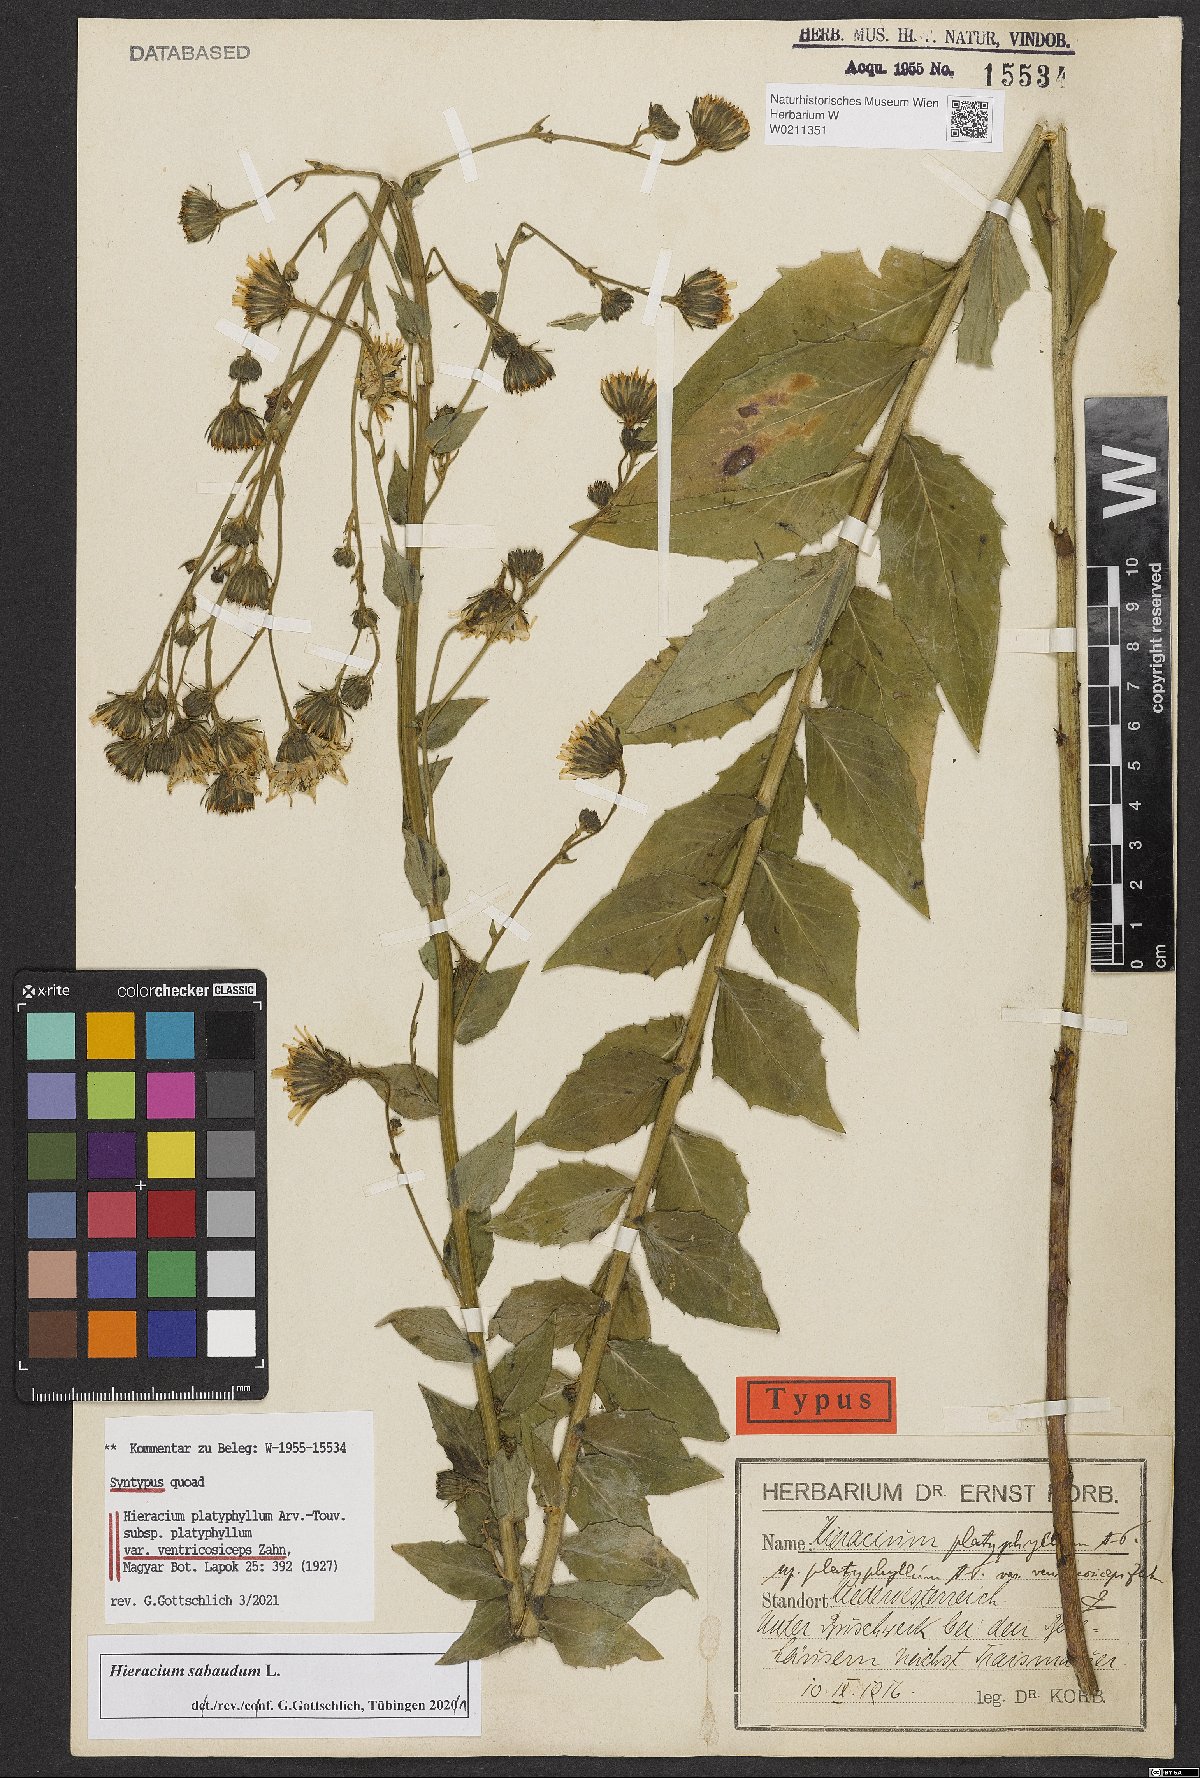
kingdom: Plantae
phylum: Tracheophyta
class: Magnoliopsida
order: Asterales
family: Asteraceae
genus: Hieracium
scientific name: Hieracium
